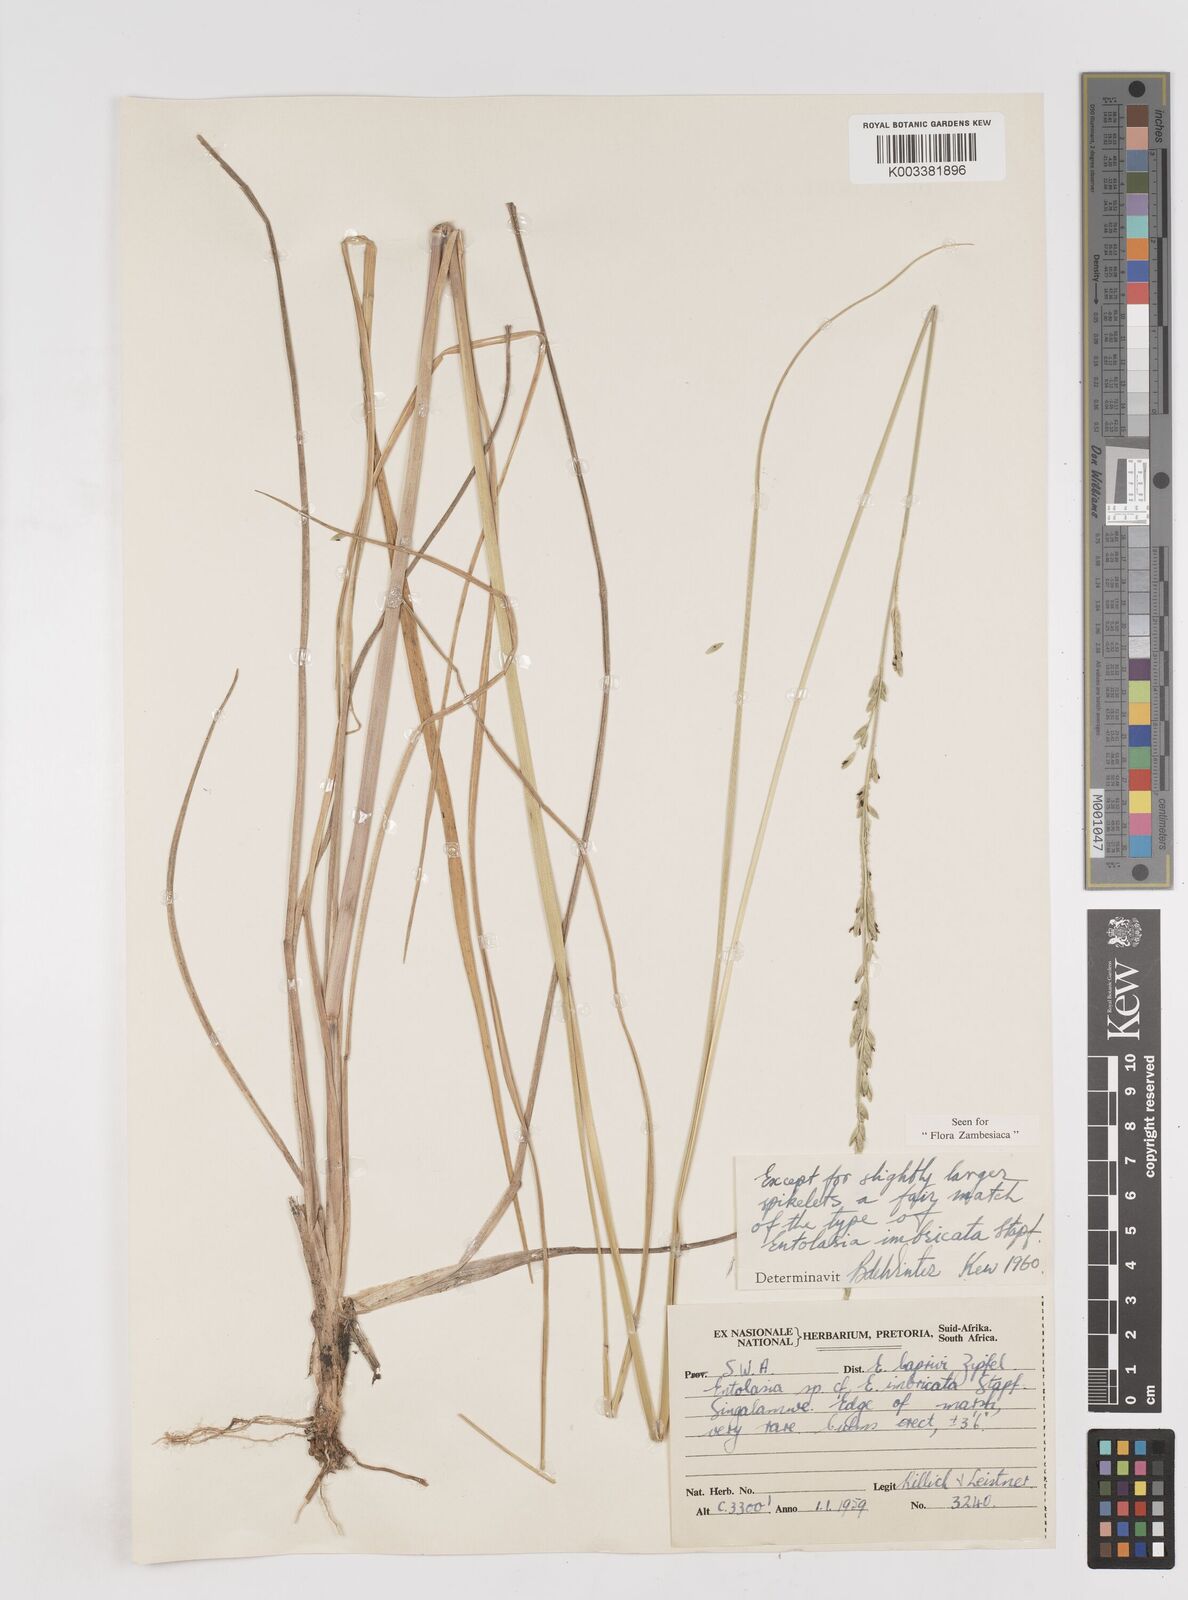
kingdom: Plantae
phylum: Tracheophyta
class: Liliopsida
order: Poales
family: Poaceae
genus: Entolasia
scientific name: Entolasia imbricata
